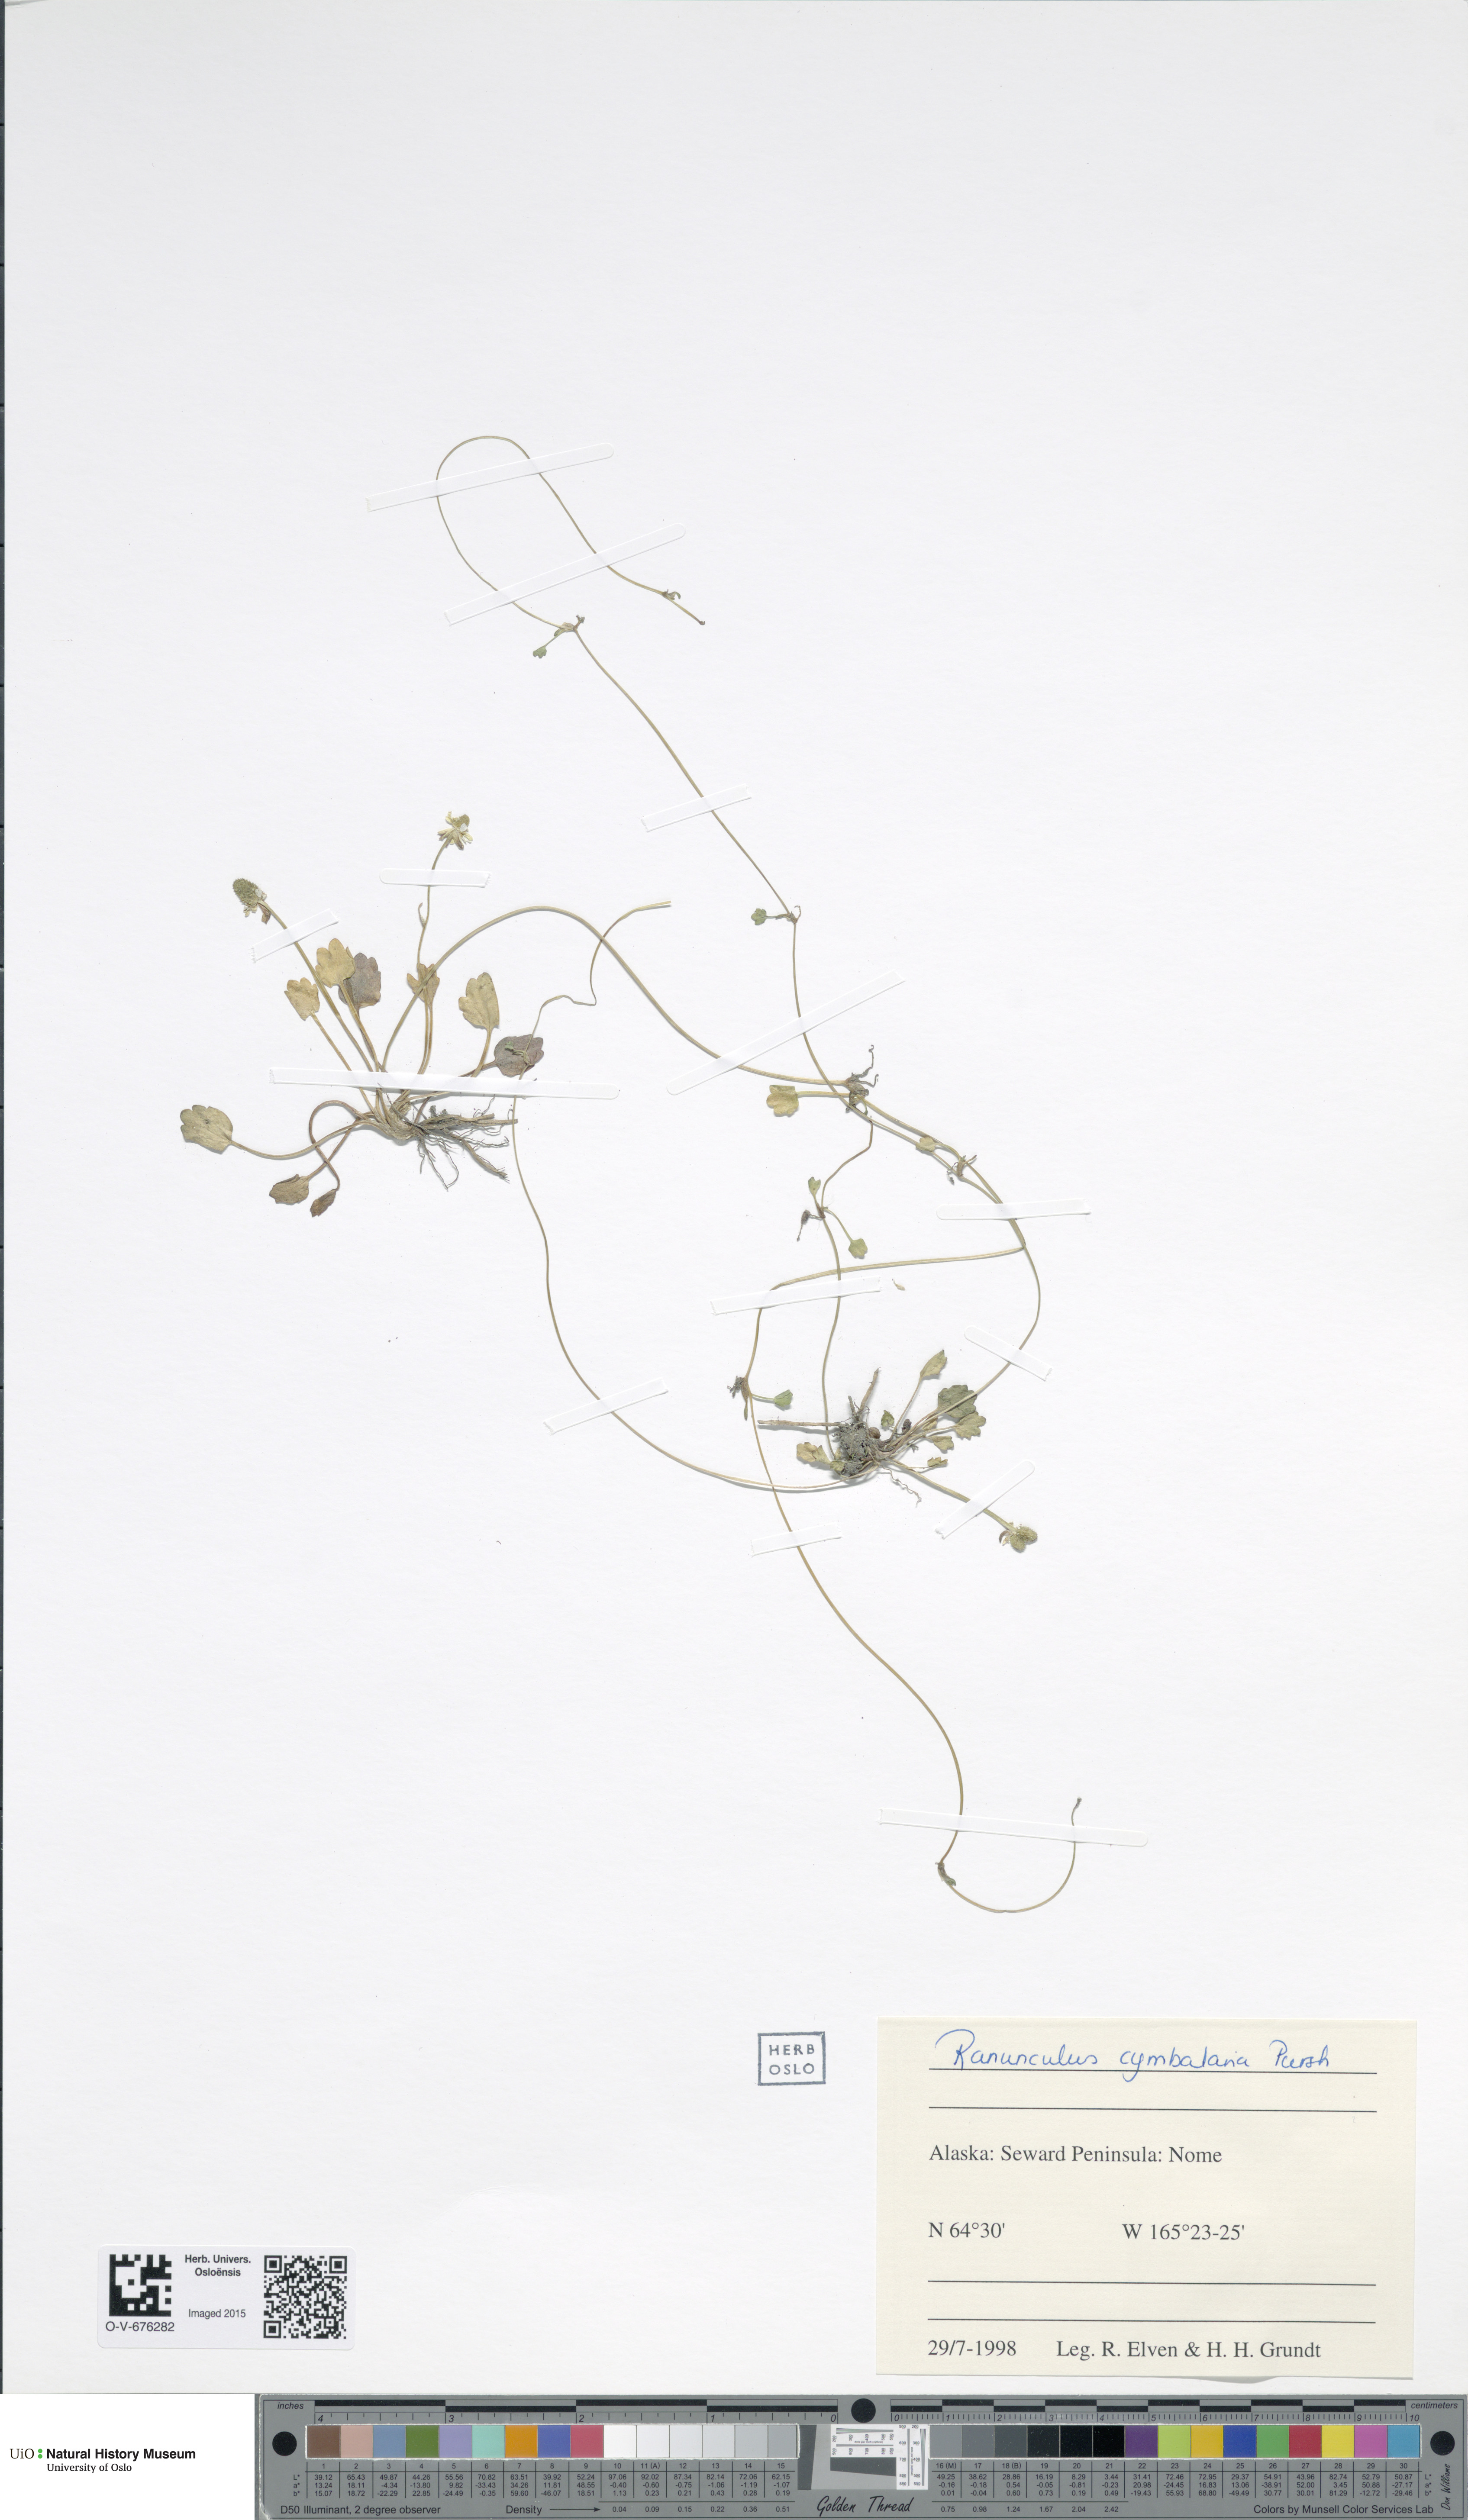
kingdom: Plantae
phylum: Tracheophyta
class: Magnoliopsida
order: Ranunculales
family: Ranunculaceae
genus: Halerpestes
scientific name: Halerpestes cymbalaria
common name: Seaside crowfoot
